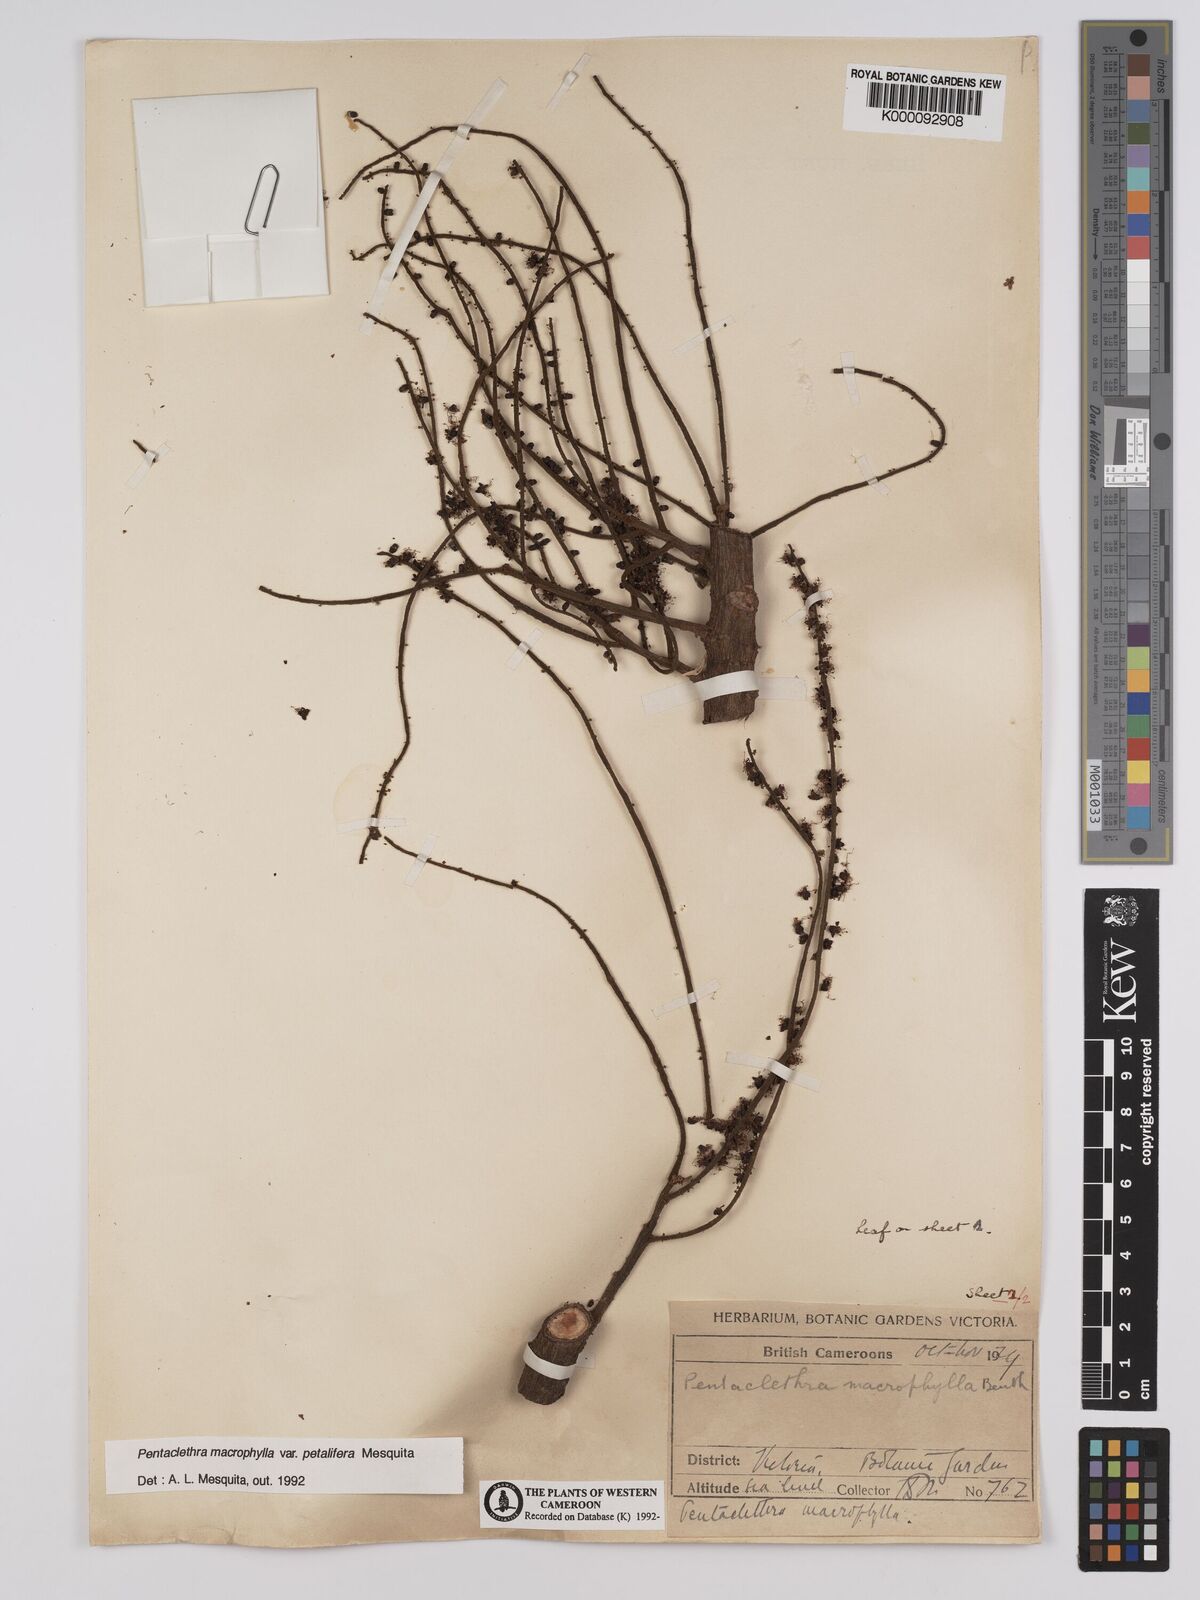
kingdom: Plantae
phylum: Tracheophyta
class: Magnoliopsida
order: Fabales
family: Fabaceae
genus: Pentaclethra
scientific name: Pentaclethra macrophylla
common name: African oil bean
